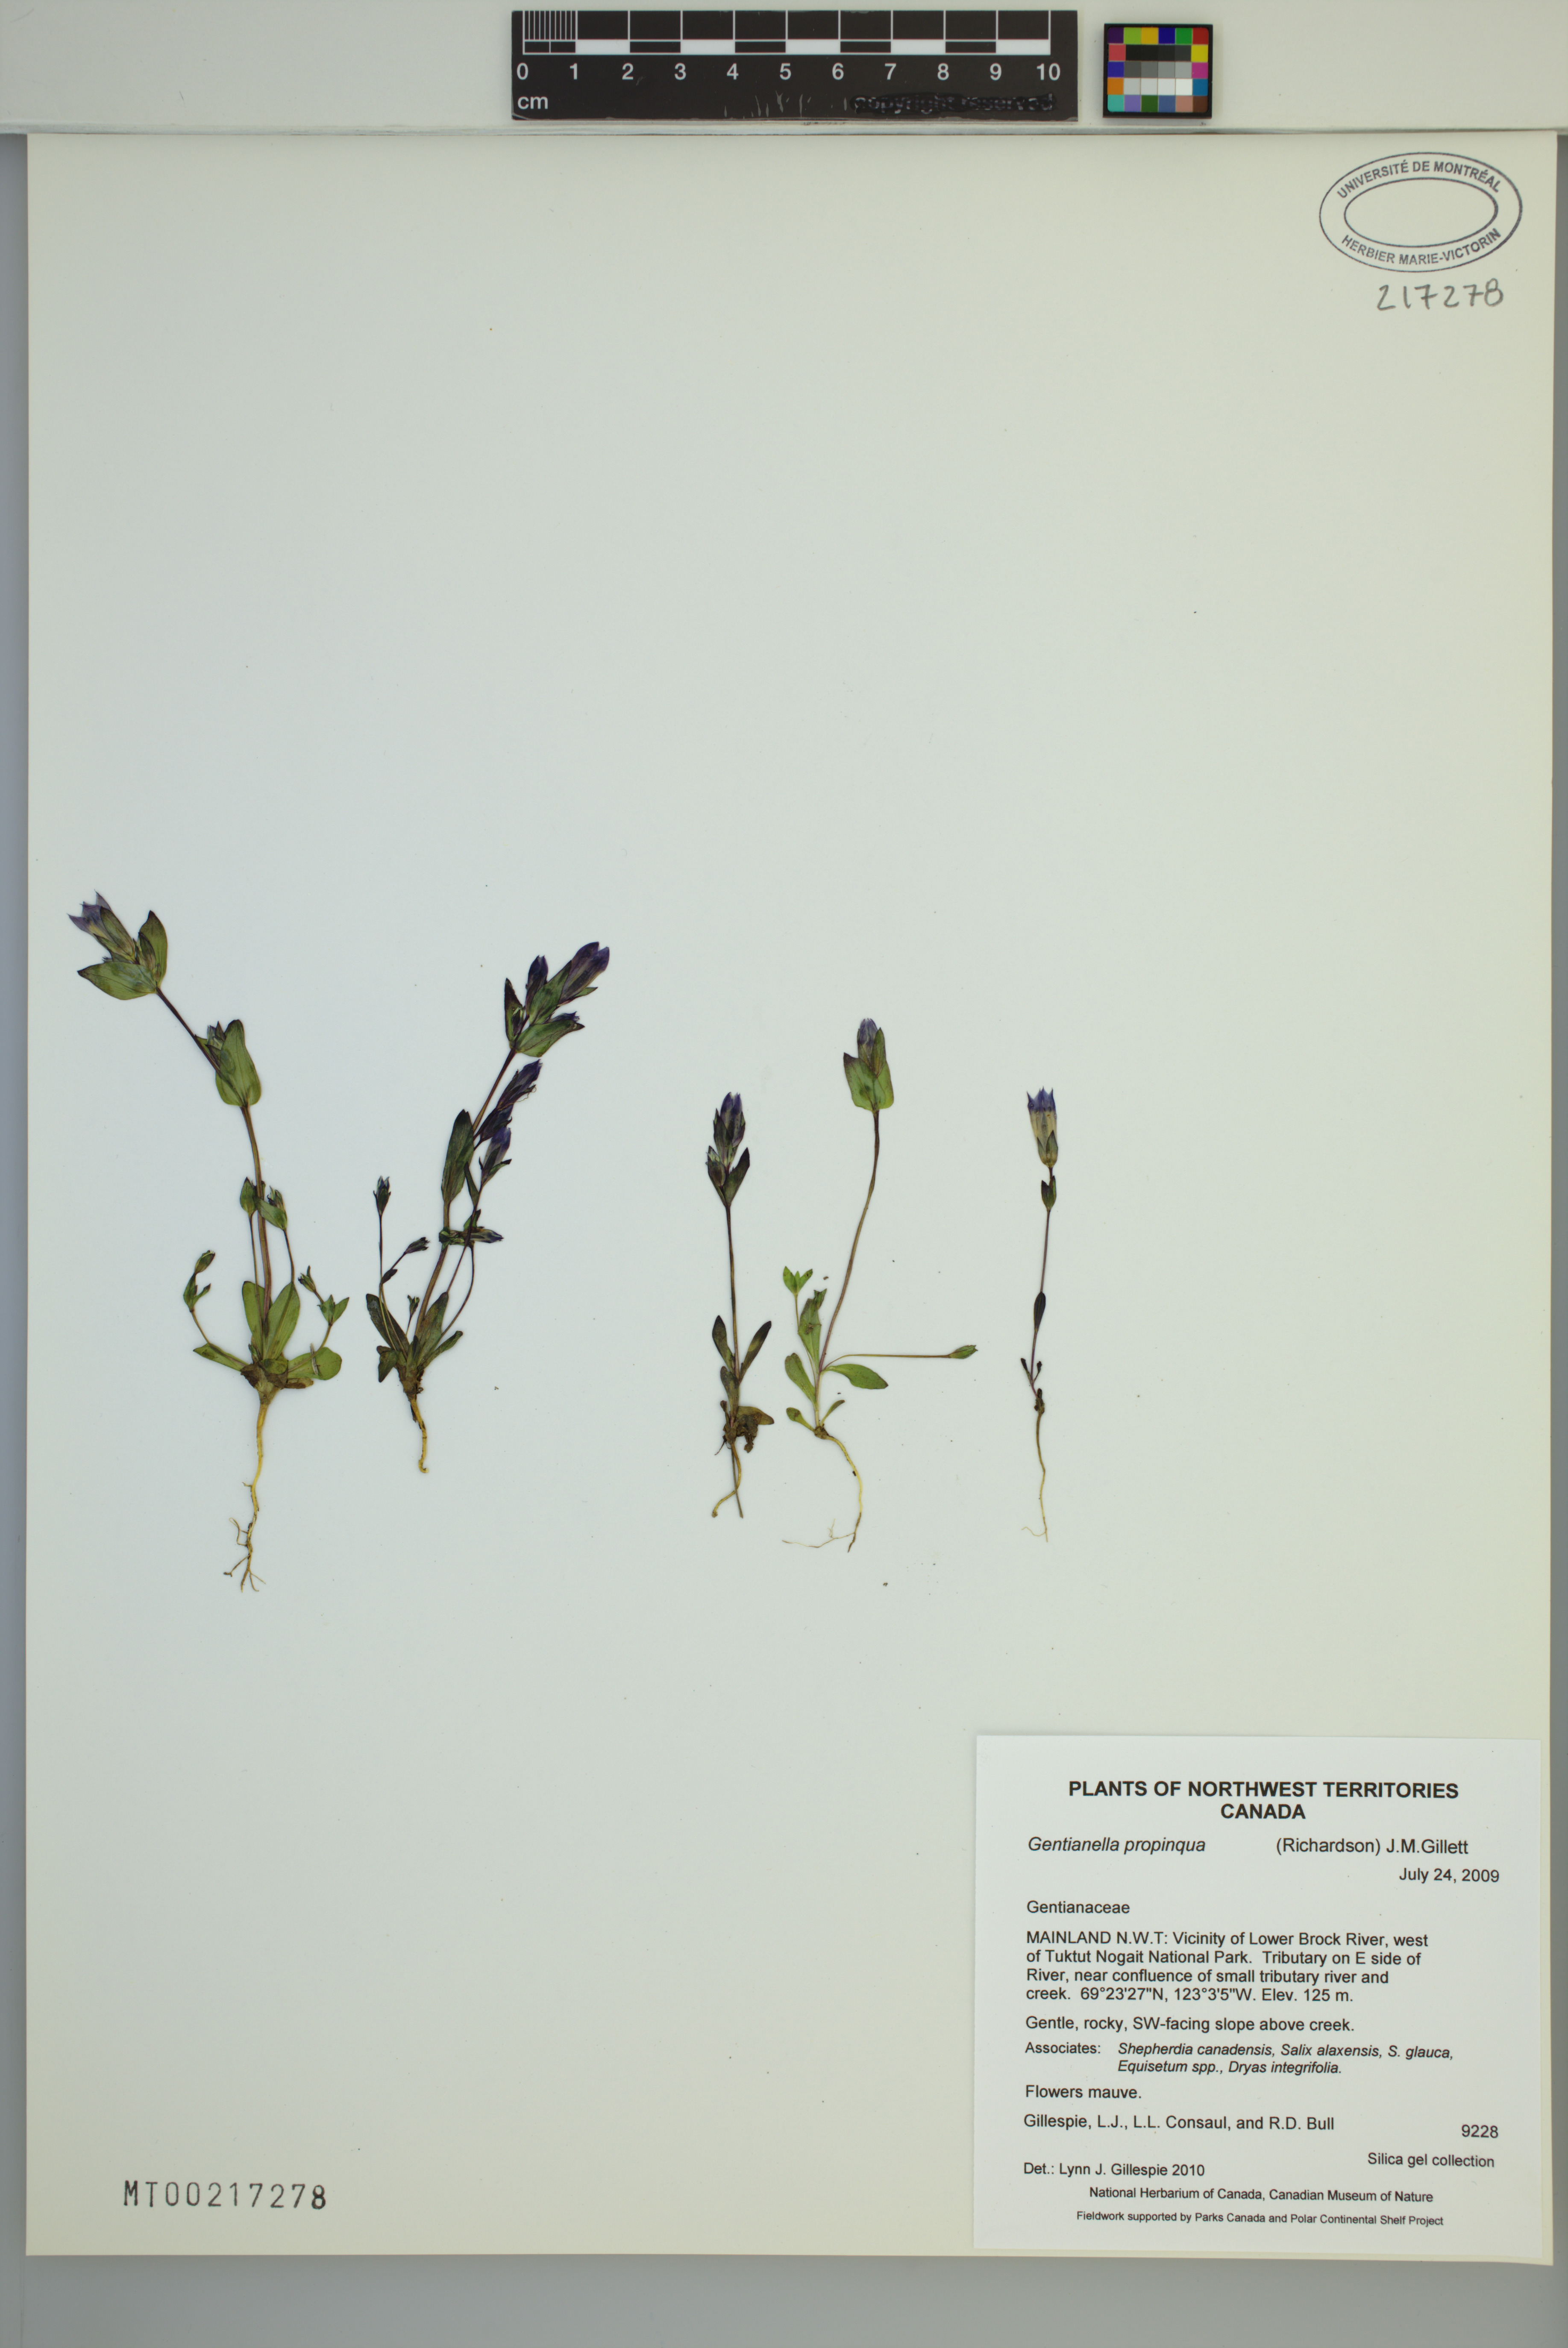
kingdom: Plantae
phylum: Tracheophyta
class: Magnoliopsida
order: Gentianales
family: Gentianaceae
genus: Gentianella
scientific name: Gentianella propinqua
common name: Four-parted dwarf-gentian
